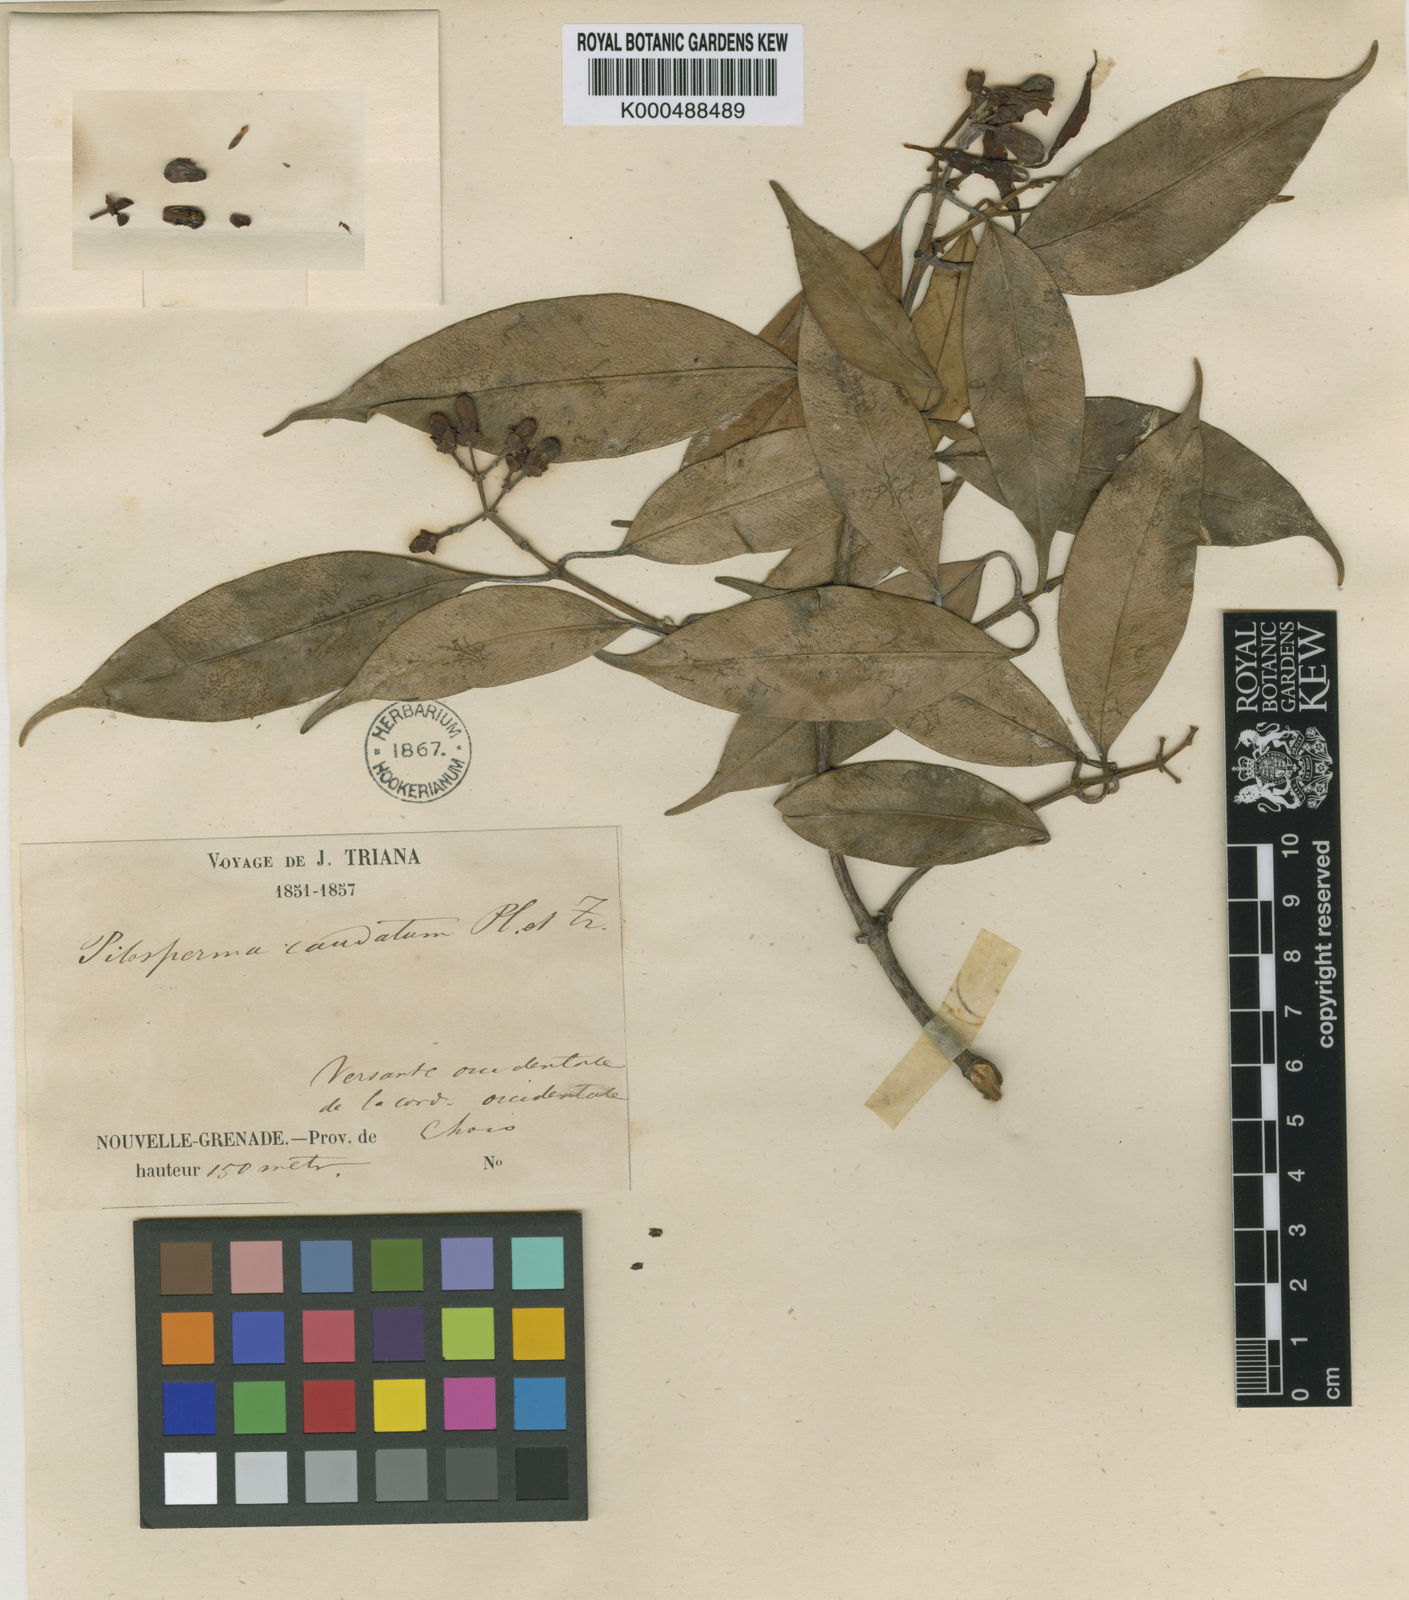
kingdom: Plantae
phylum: Tracheophyta
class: Magnoliopsida
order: Malpighiales
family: Clusiaceae
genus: Clusia
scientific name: Clusia caudata
